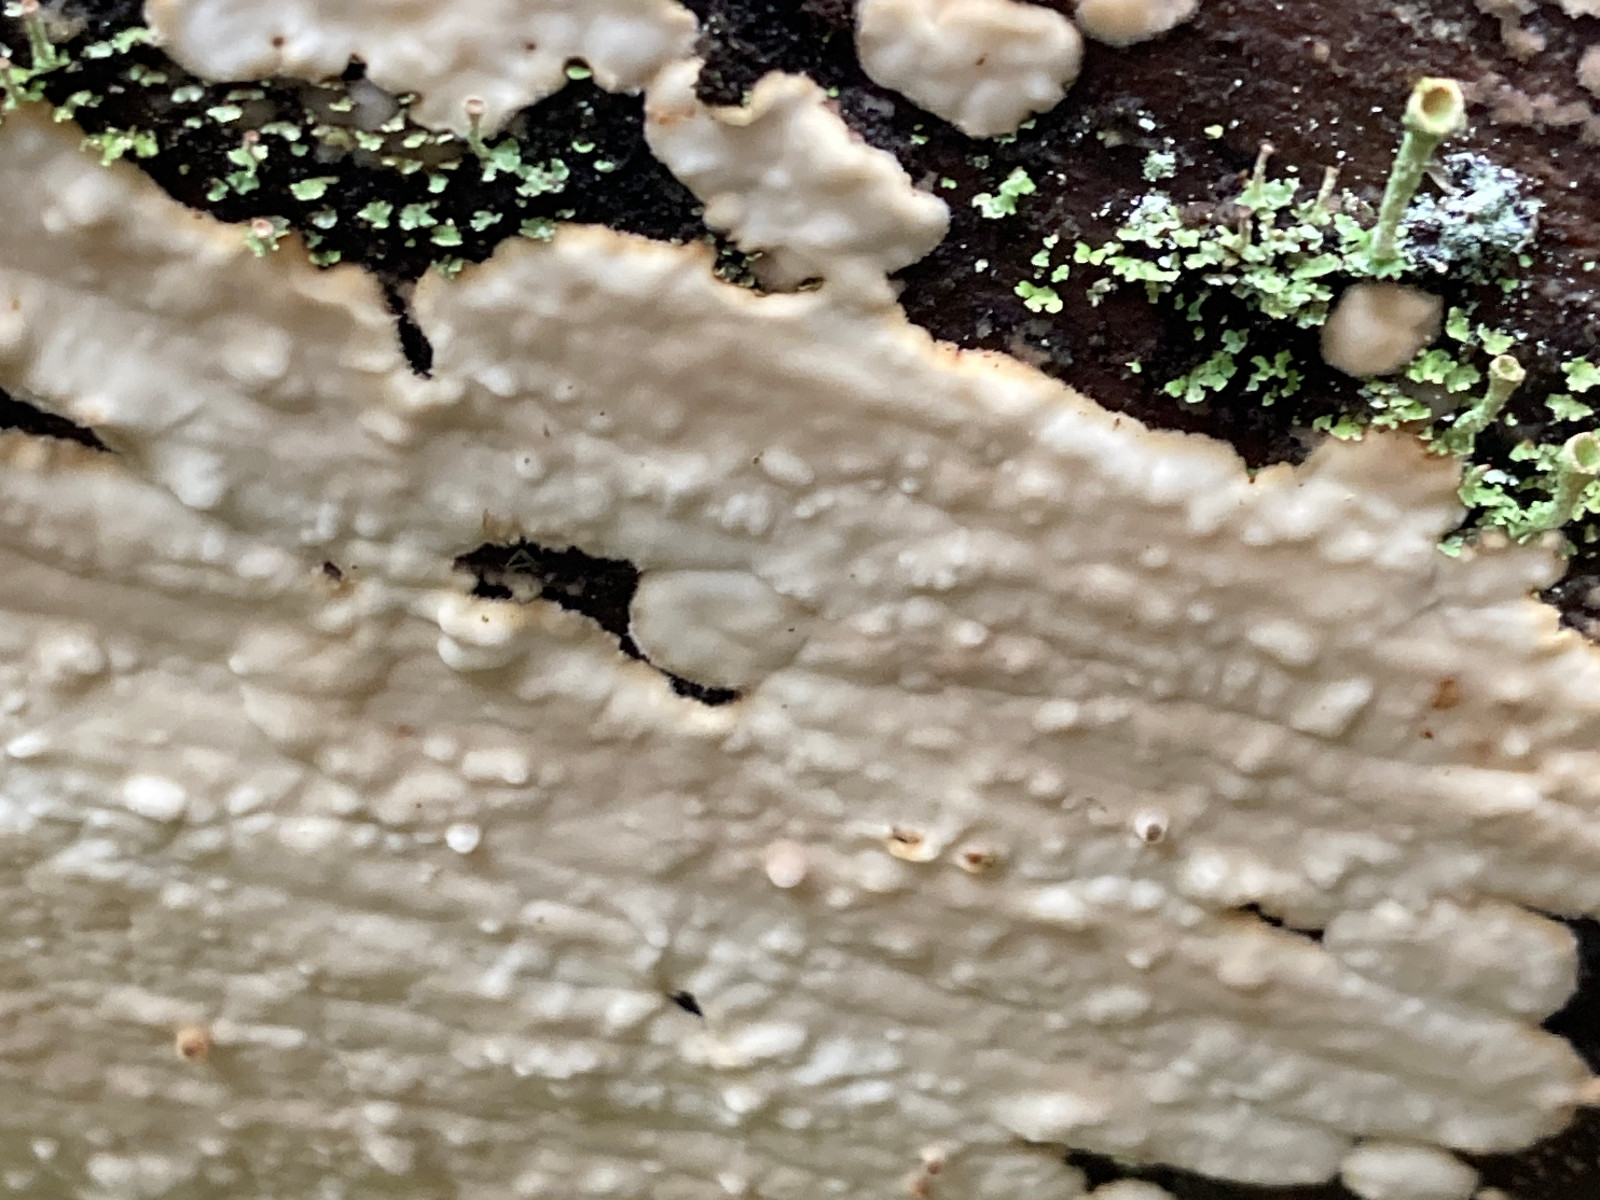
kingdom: Fungi
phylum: Basidiomycota
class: Agaricomycetes
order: Polyporales
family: Dacryobolaceae
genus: Dacryobolus
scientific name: Dacryobolus karstenii
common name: glat vulkanskorpe
